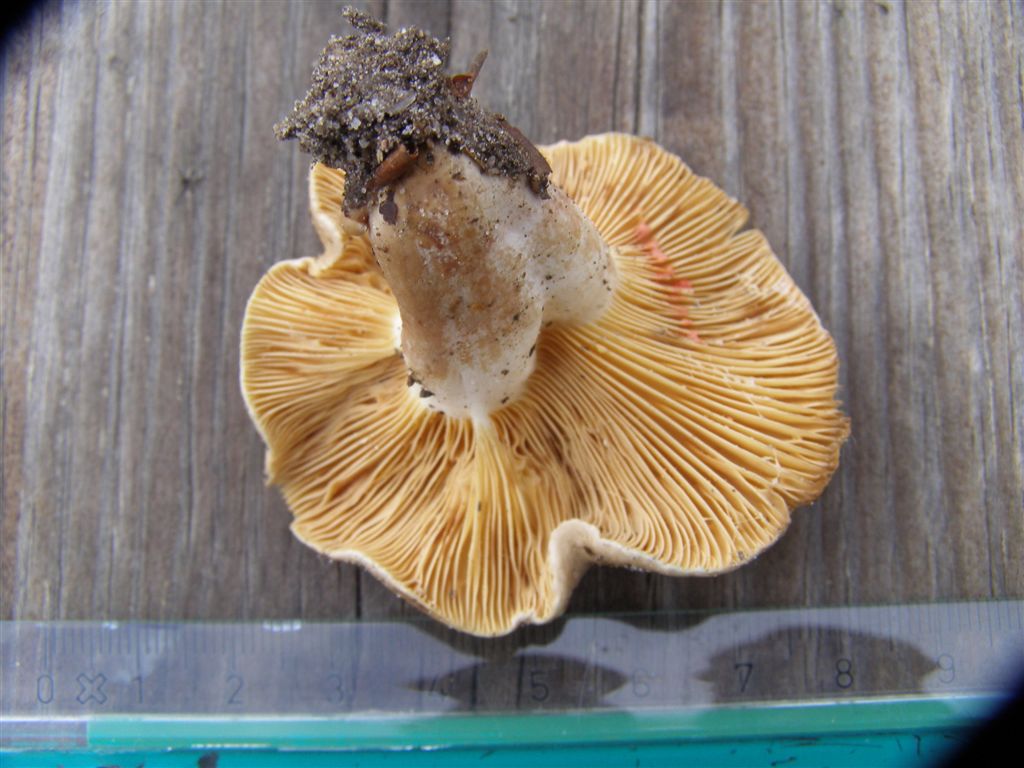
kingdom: Fungi
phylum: Basidiomycota
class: Agaricomycetes
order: Russulales
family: Russulaceae
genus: Lactarius
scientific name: Lactarius acris
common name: rosamælket mælkehat
